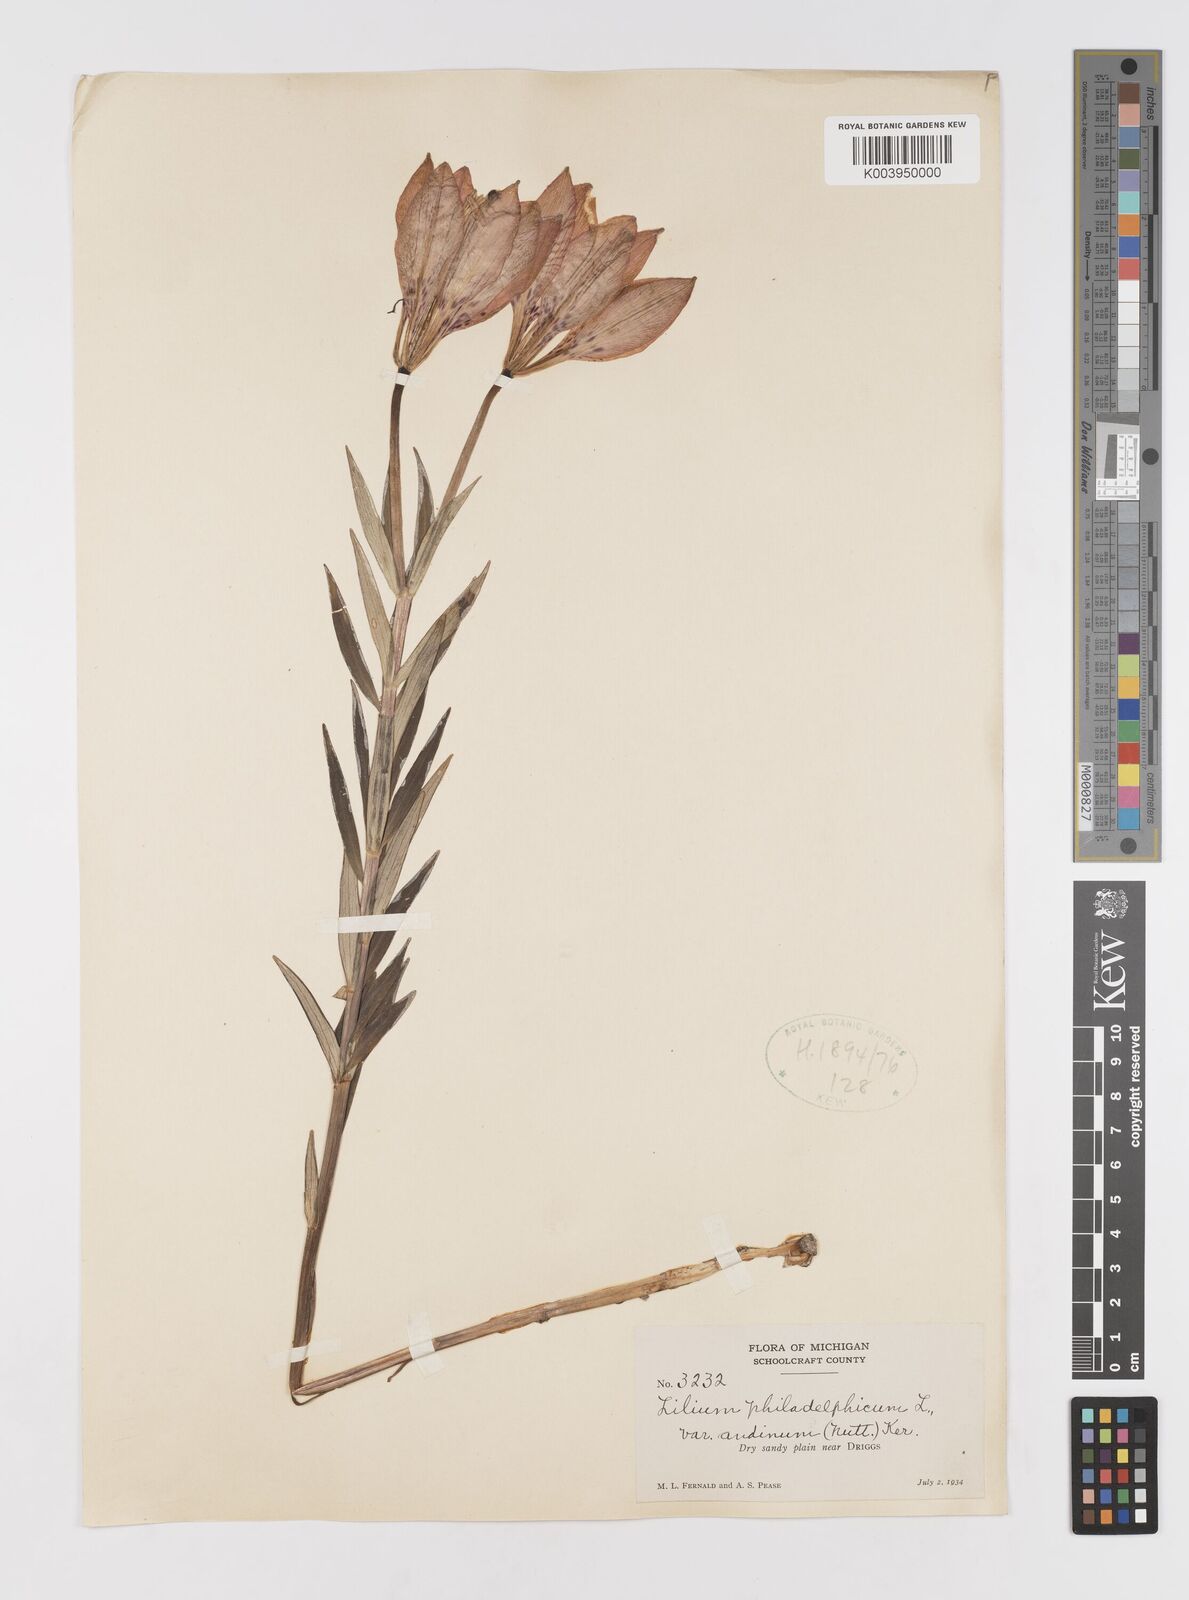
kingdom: Plantae
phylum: Tracheophyta
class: Liliopsida
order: Liliales
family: Liliaceae
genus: Lilium
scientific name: Lilium philadelphicum
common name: Red lily
